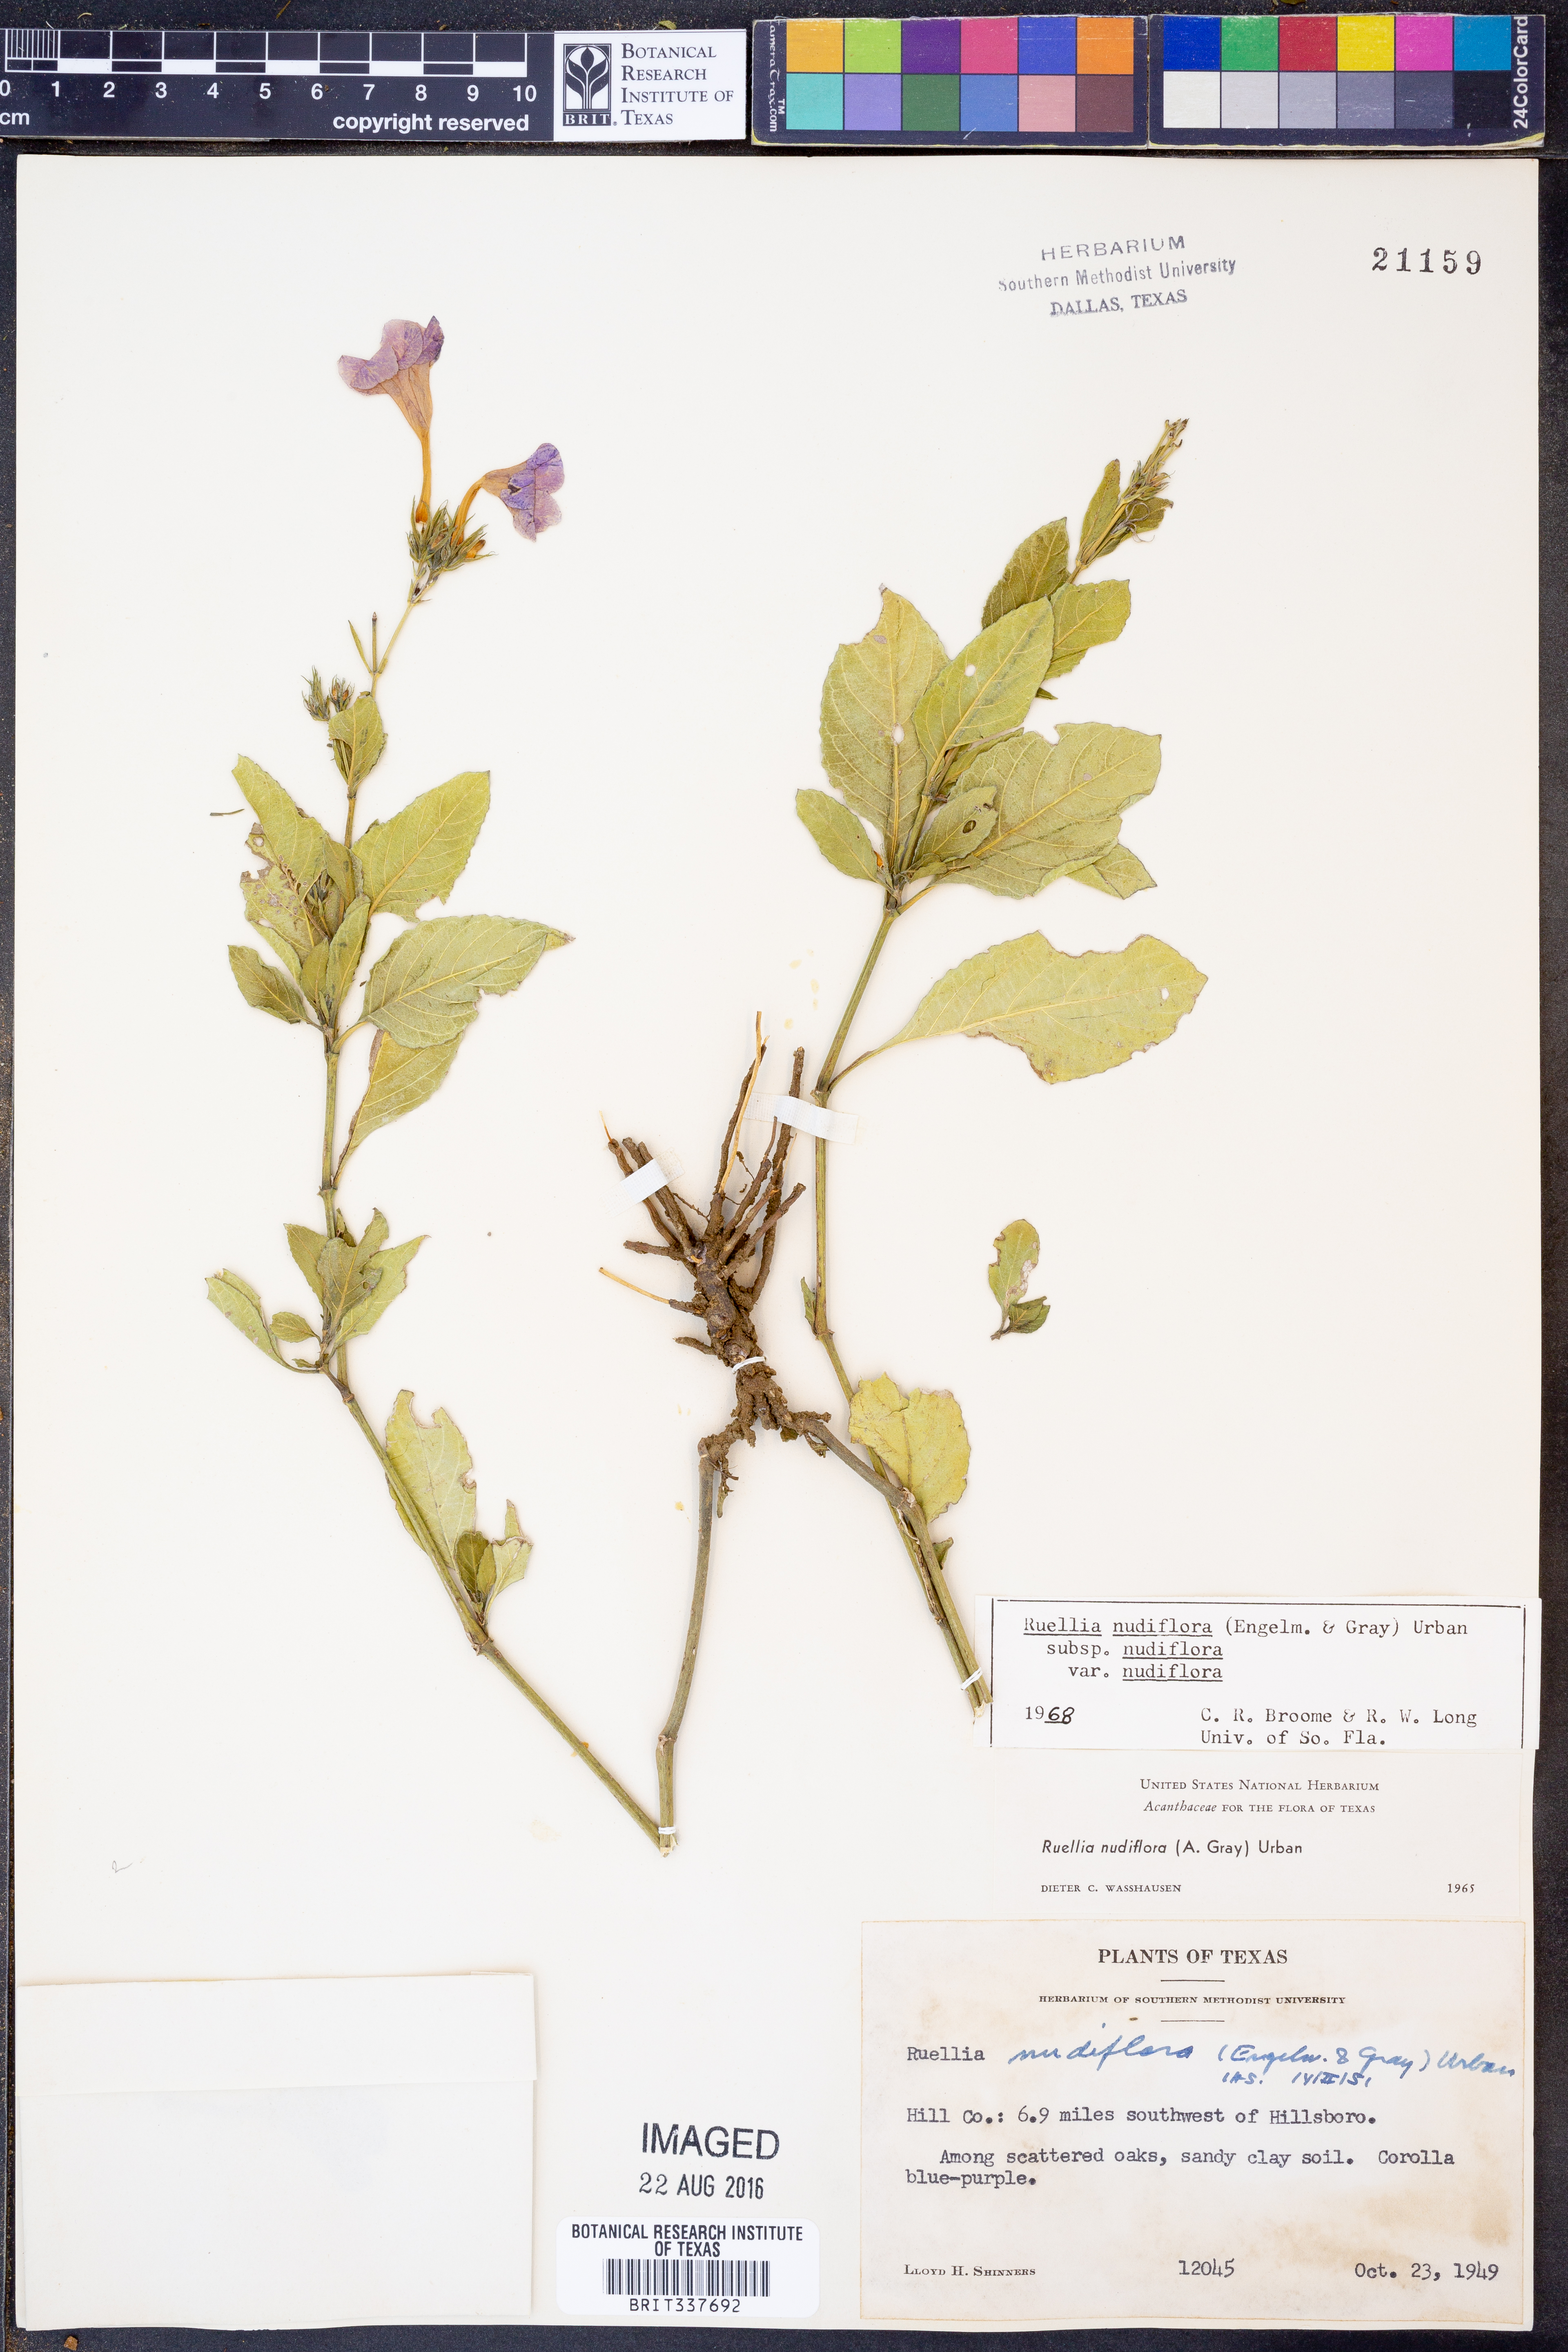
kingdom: Plantae
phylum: Tracheophyta
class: Magnoliopsida
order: Lamiales
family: Acanthaceae
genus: Ruellia
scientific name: Ruellia ciliatiflora
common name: Hairyflower wild petunia
